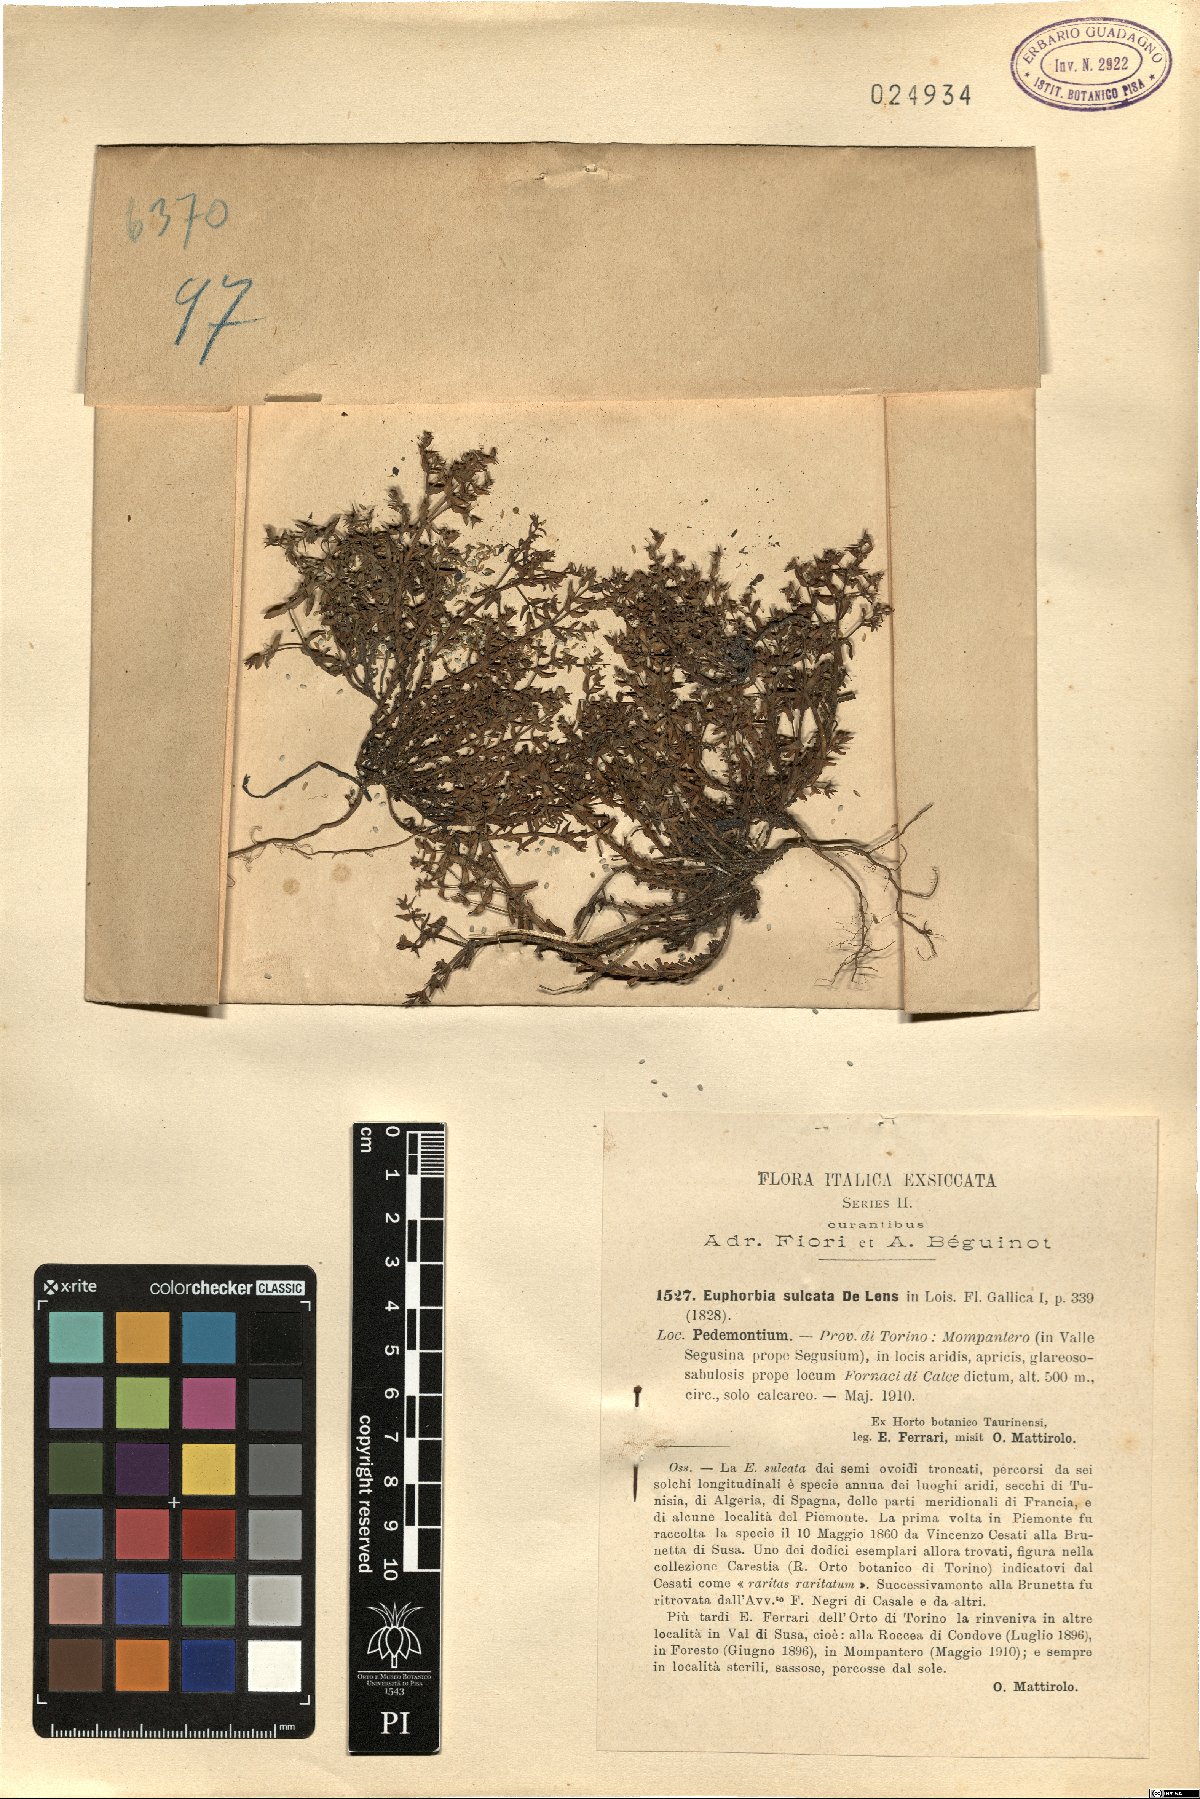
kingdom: Plantae
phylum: Tracheophyta
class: Magnoliopsida
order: Malpighiales
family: Euphorbiaceae
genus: Euphorbia
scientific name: Euphorbia sulcata
